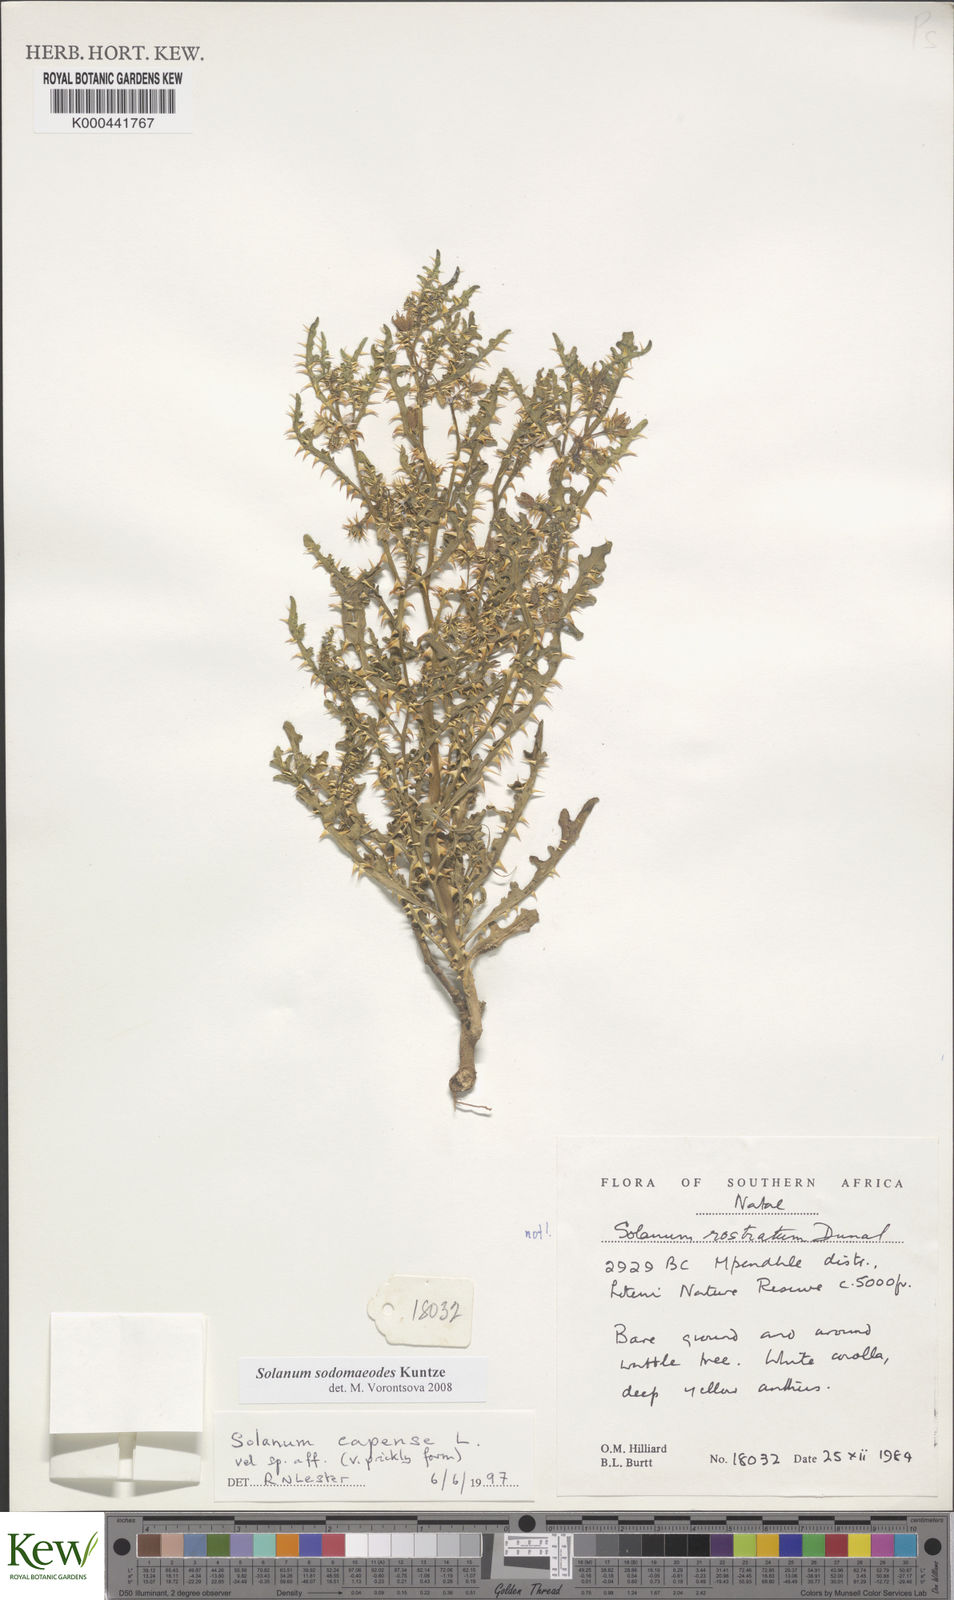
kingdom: Plantae
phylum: Tracheophyta
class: Magnoliopsida
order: Solanales
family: Solanaceae
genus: Solanum
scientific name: Solanum
